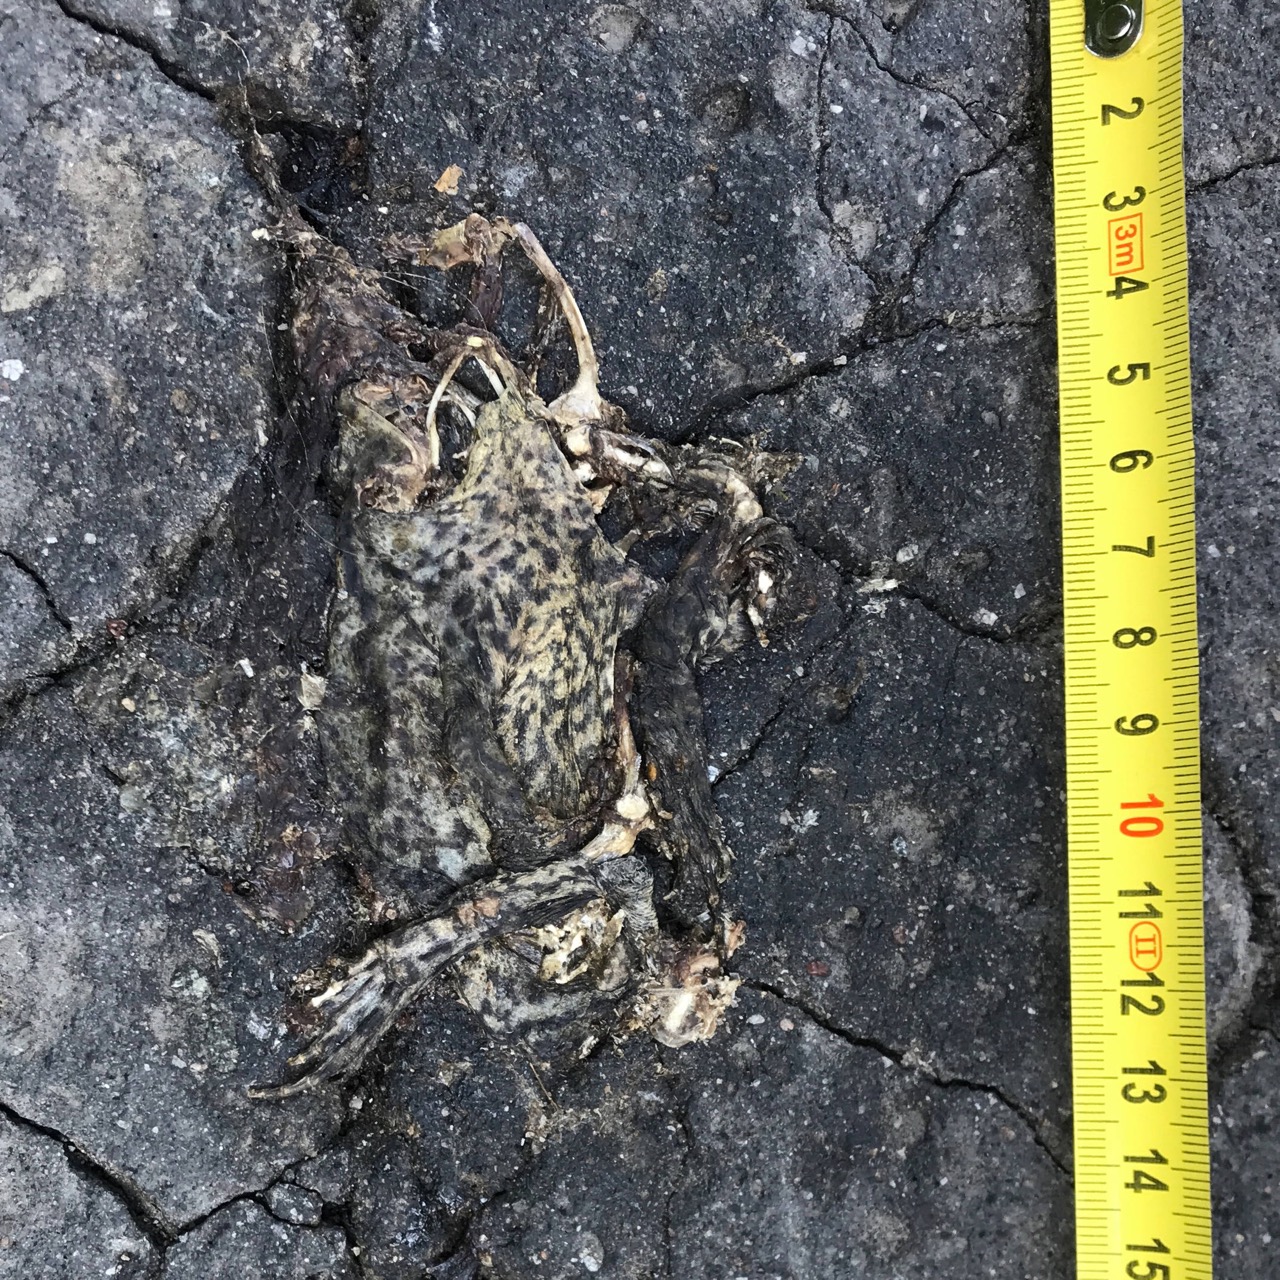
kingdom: Animalia
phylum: Chordata
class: Amphibia
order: Anura
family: Bufonidae
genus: Bufo
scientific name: Bufo bufo
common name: Common toad
